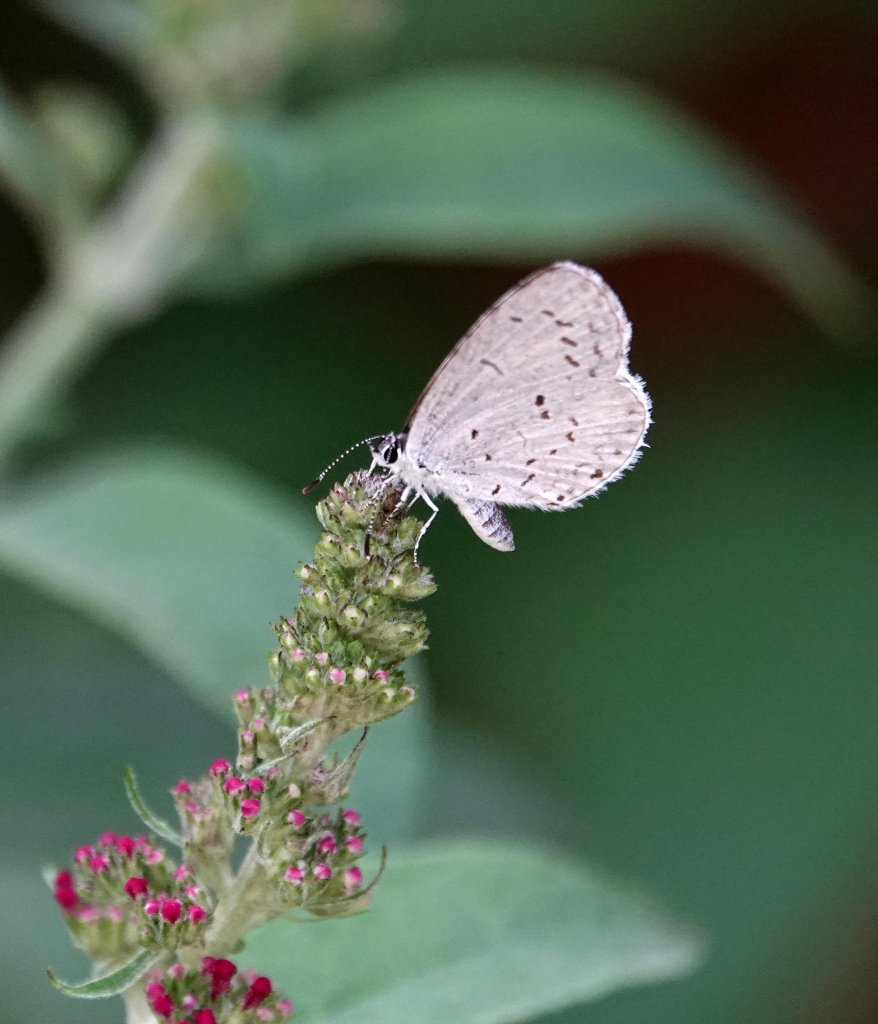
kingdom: Animalia
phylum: Arthropoda
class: Insecta
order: Lepidoptera
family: Lycaenidae
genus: Cyaniris
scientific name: Cyaniris neglecta
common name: Summer Azure
